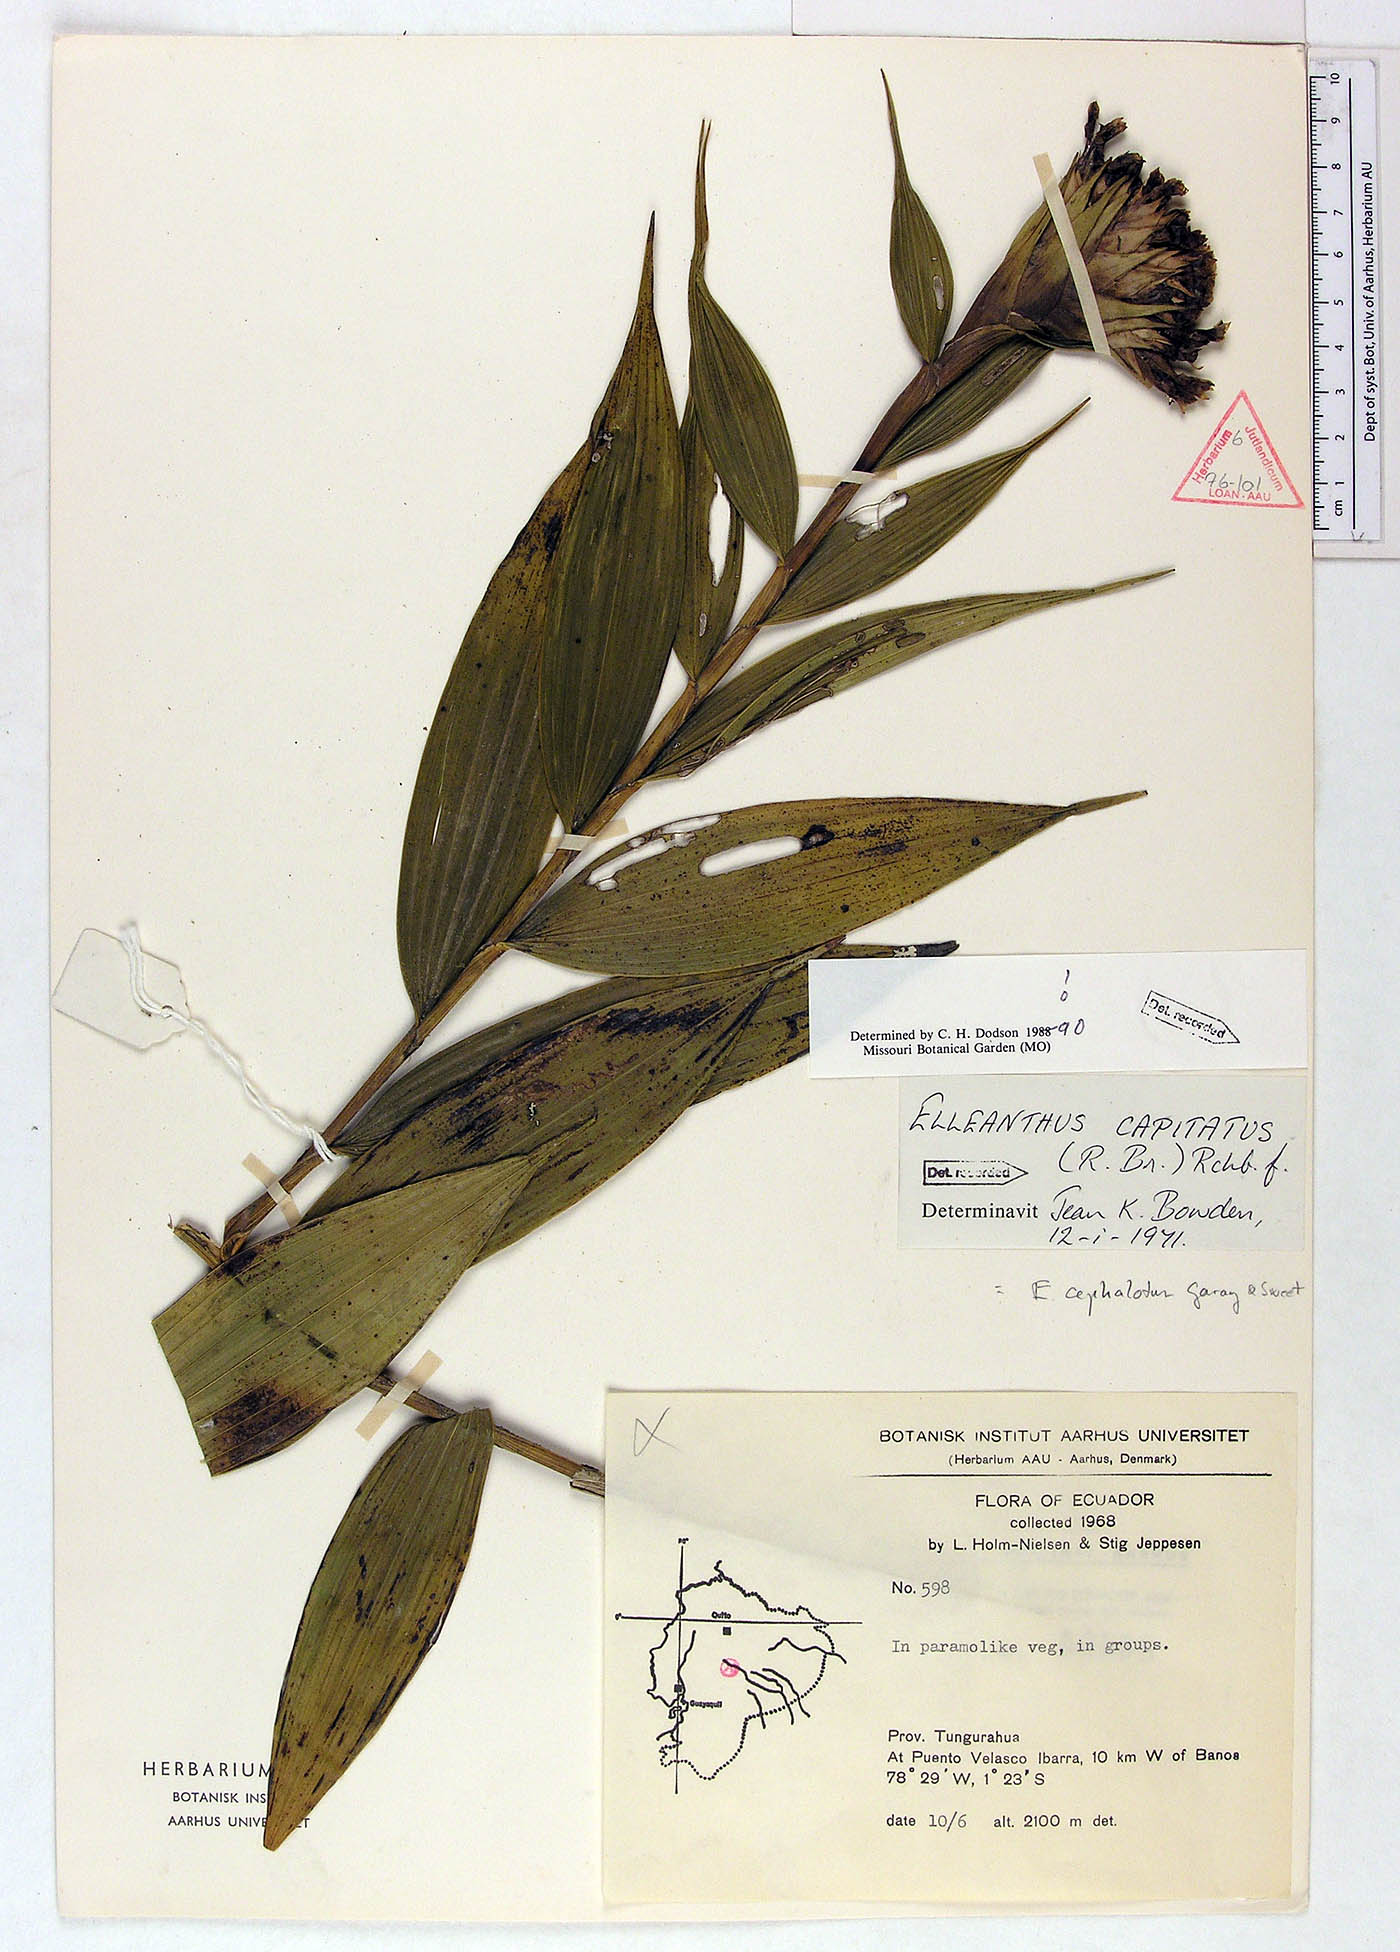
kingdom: Plantae
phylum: Tracheophyta
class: Liliopsida
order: Asparagales
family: Orchidaceae
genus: Elleanthus
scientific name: Elleanthus capitatus
